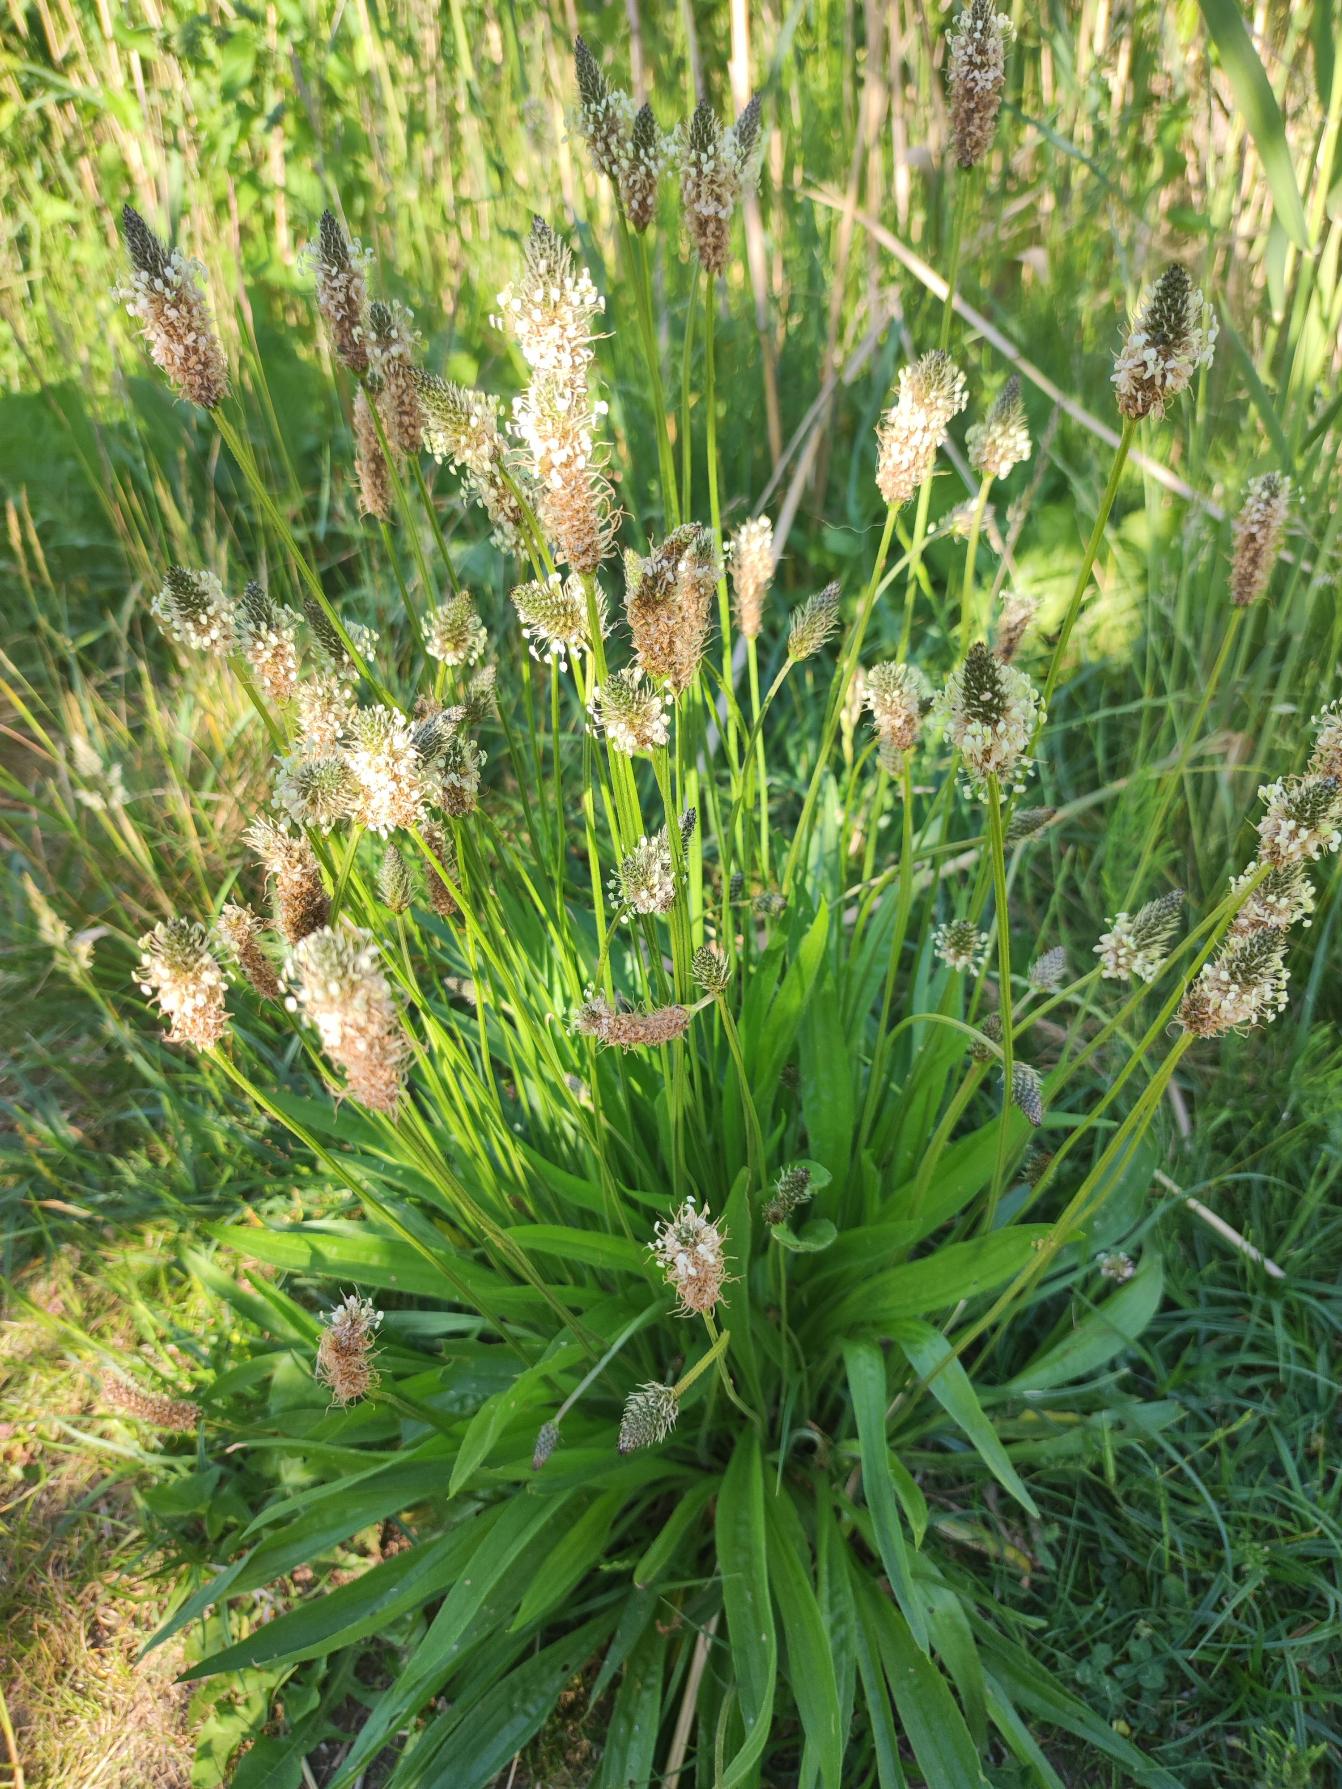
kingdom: Plantae
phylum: Tracheophyta
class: Magnoliopsida
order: Lamiales
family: Plantaginaceae
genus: Plantago
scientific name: Plantago lanceolata
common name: Lancet-vejbred
